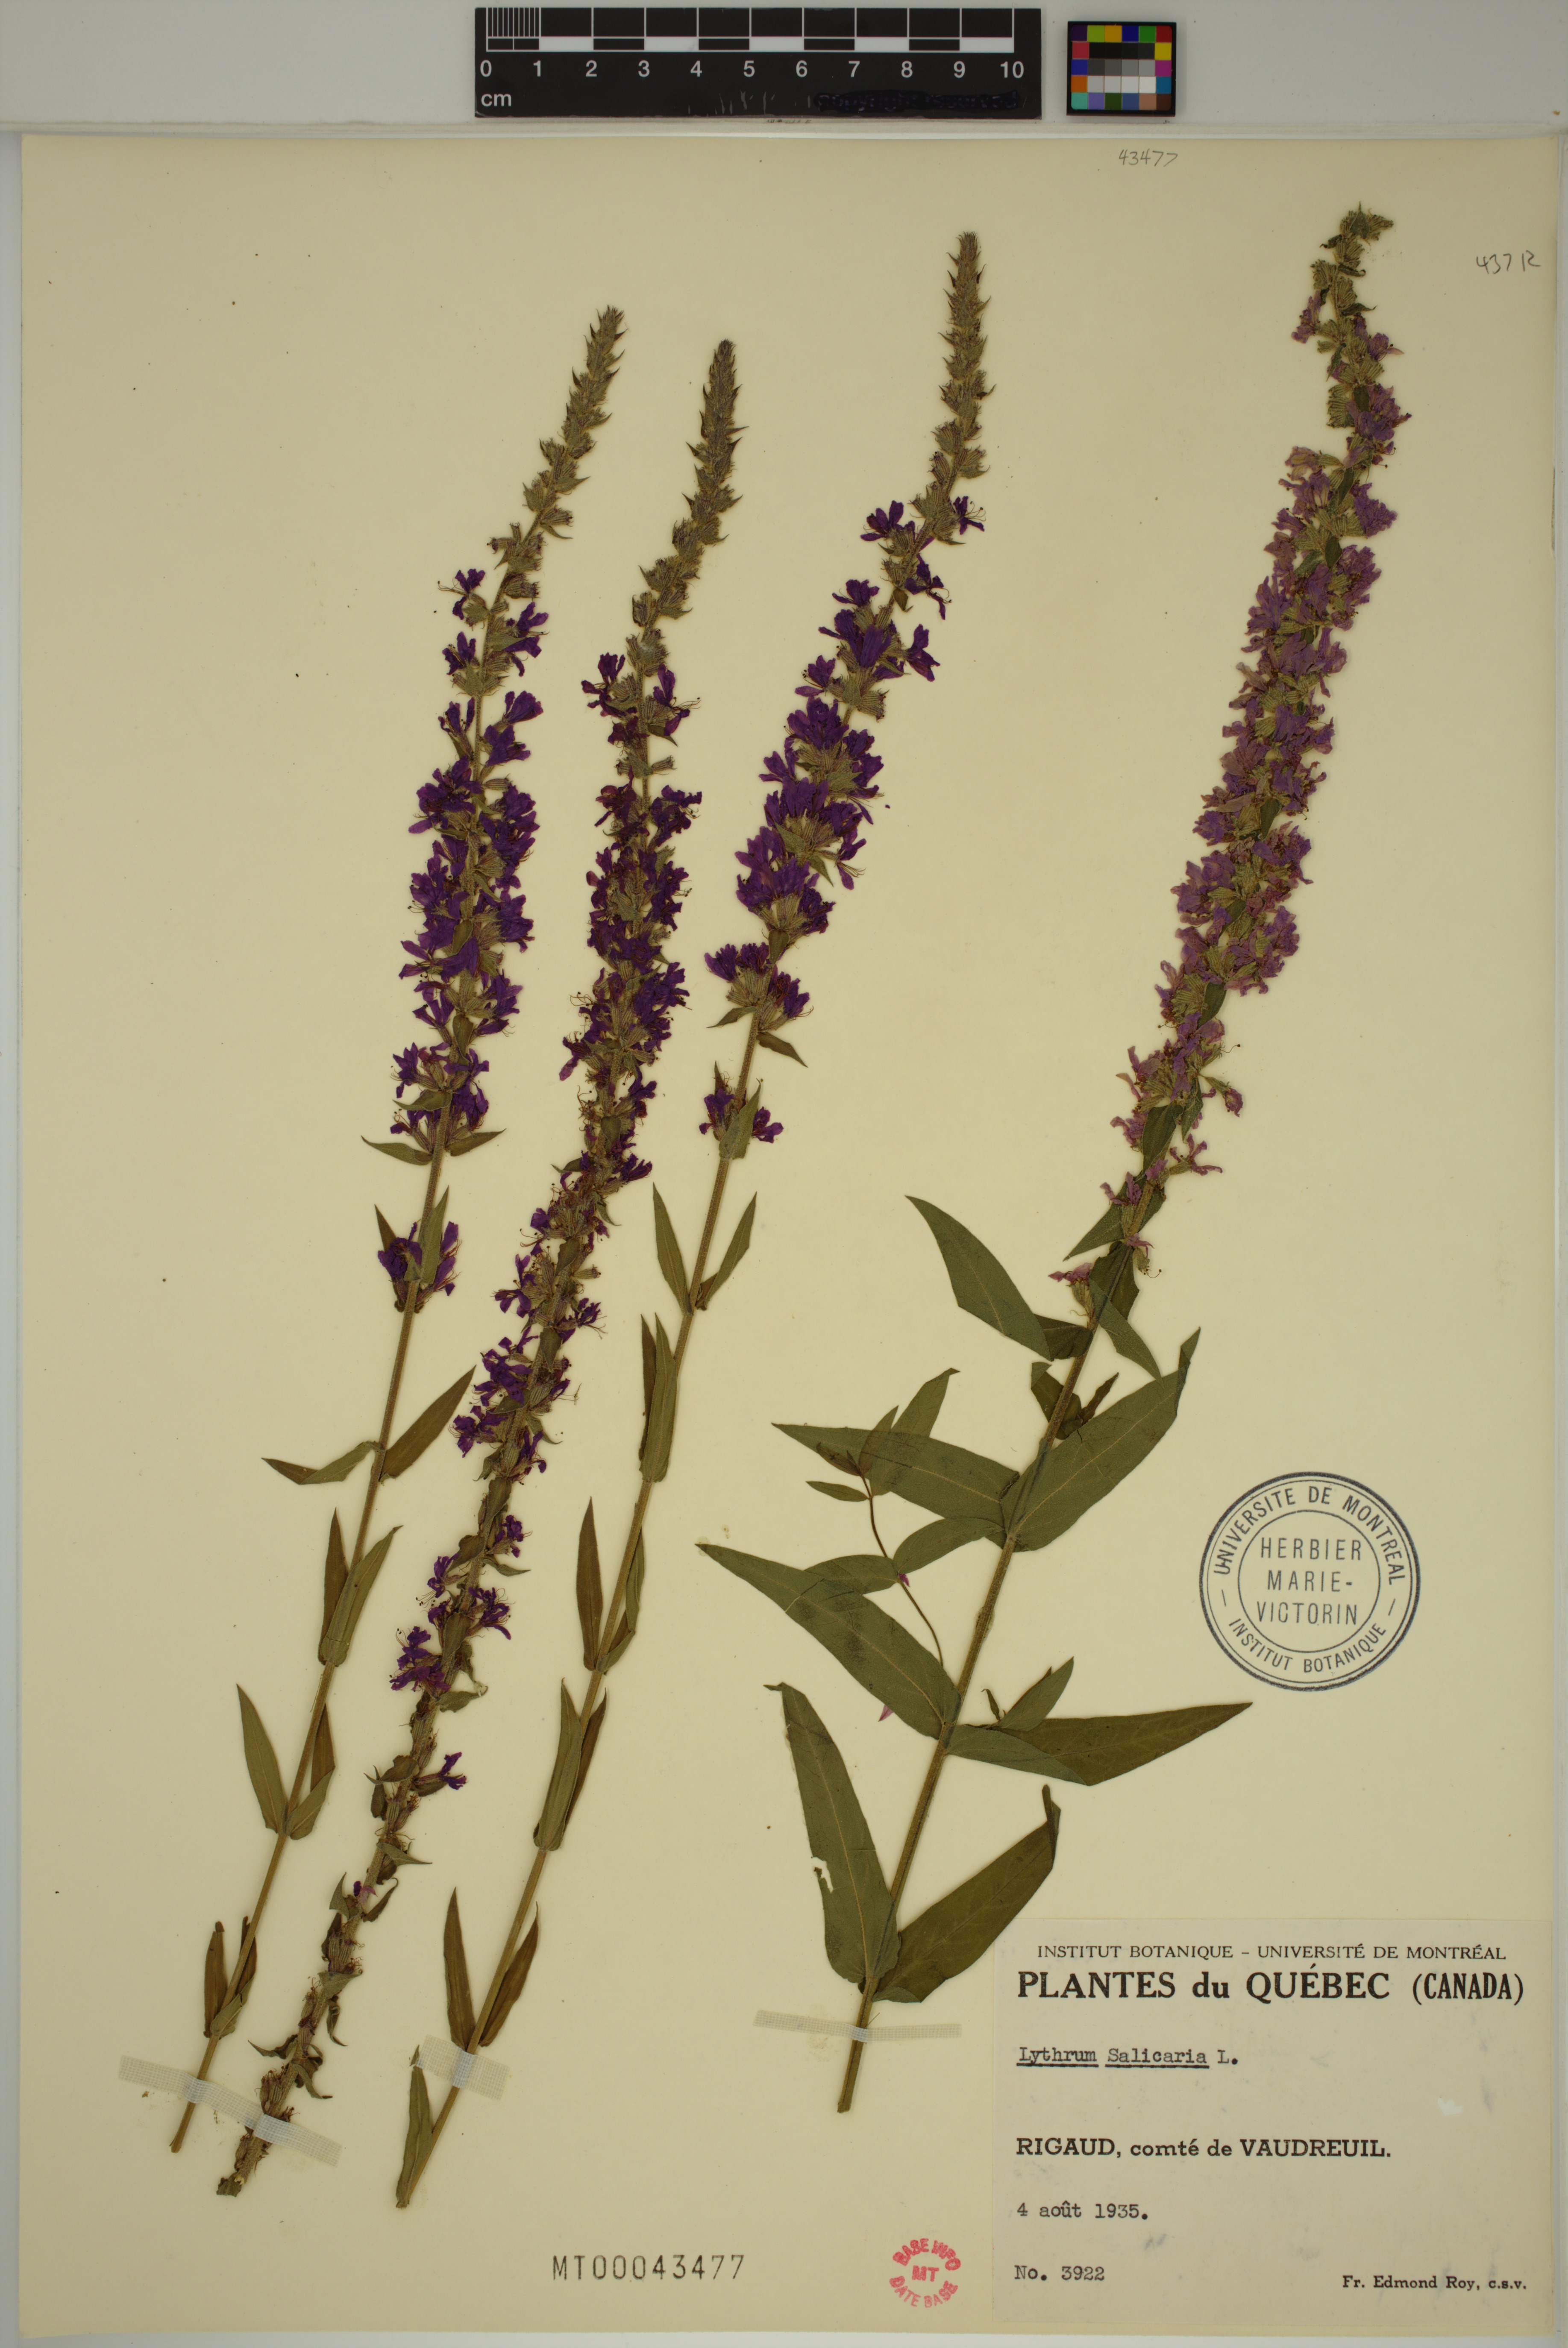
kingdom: Plantae
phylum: Tracheophyta
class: Magnoliopsida
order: Myrtales
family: Lythraceae
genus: Lythrum
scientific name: Lythrum salicaria
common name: Purple loosestrife
